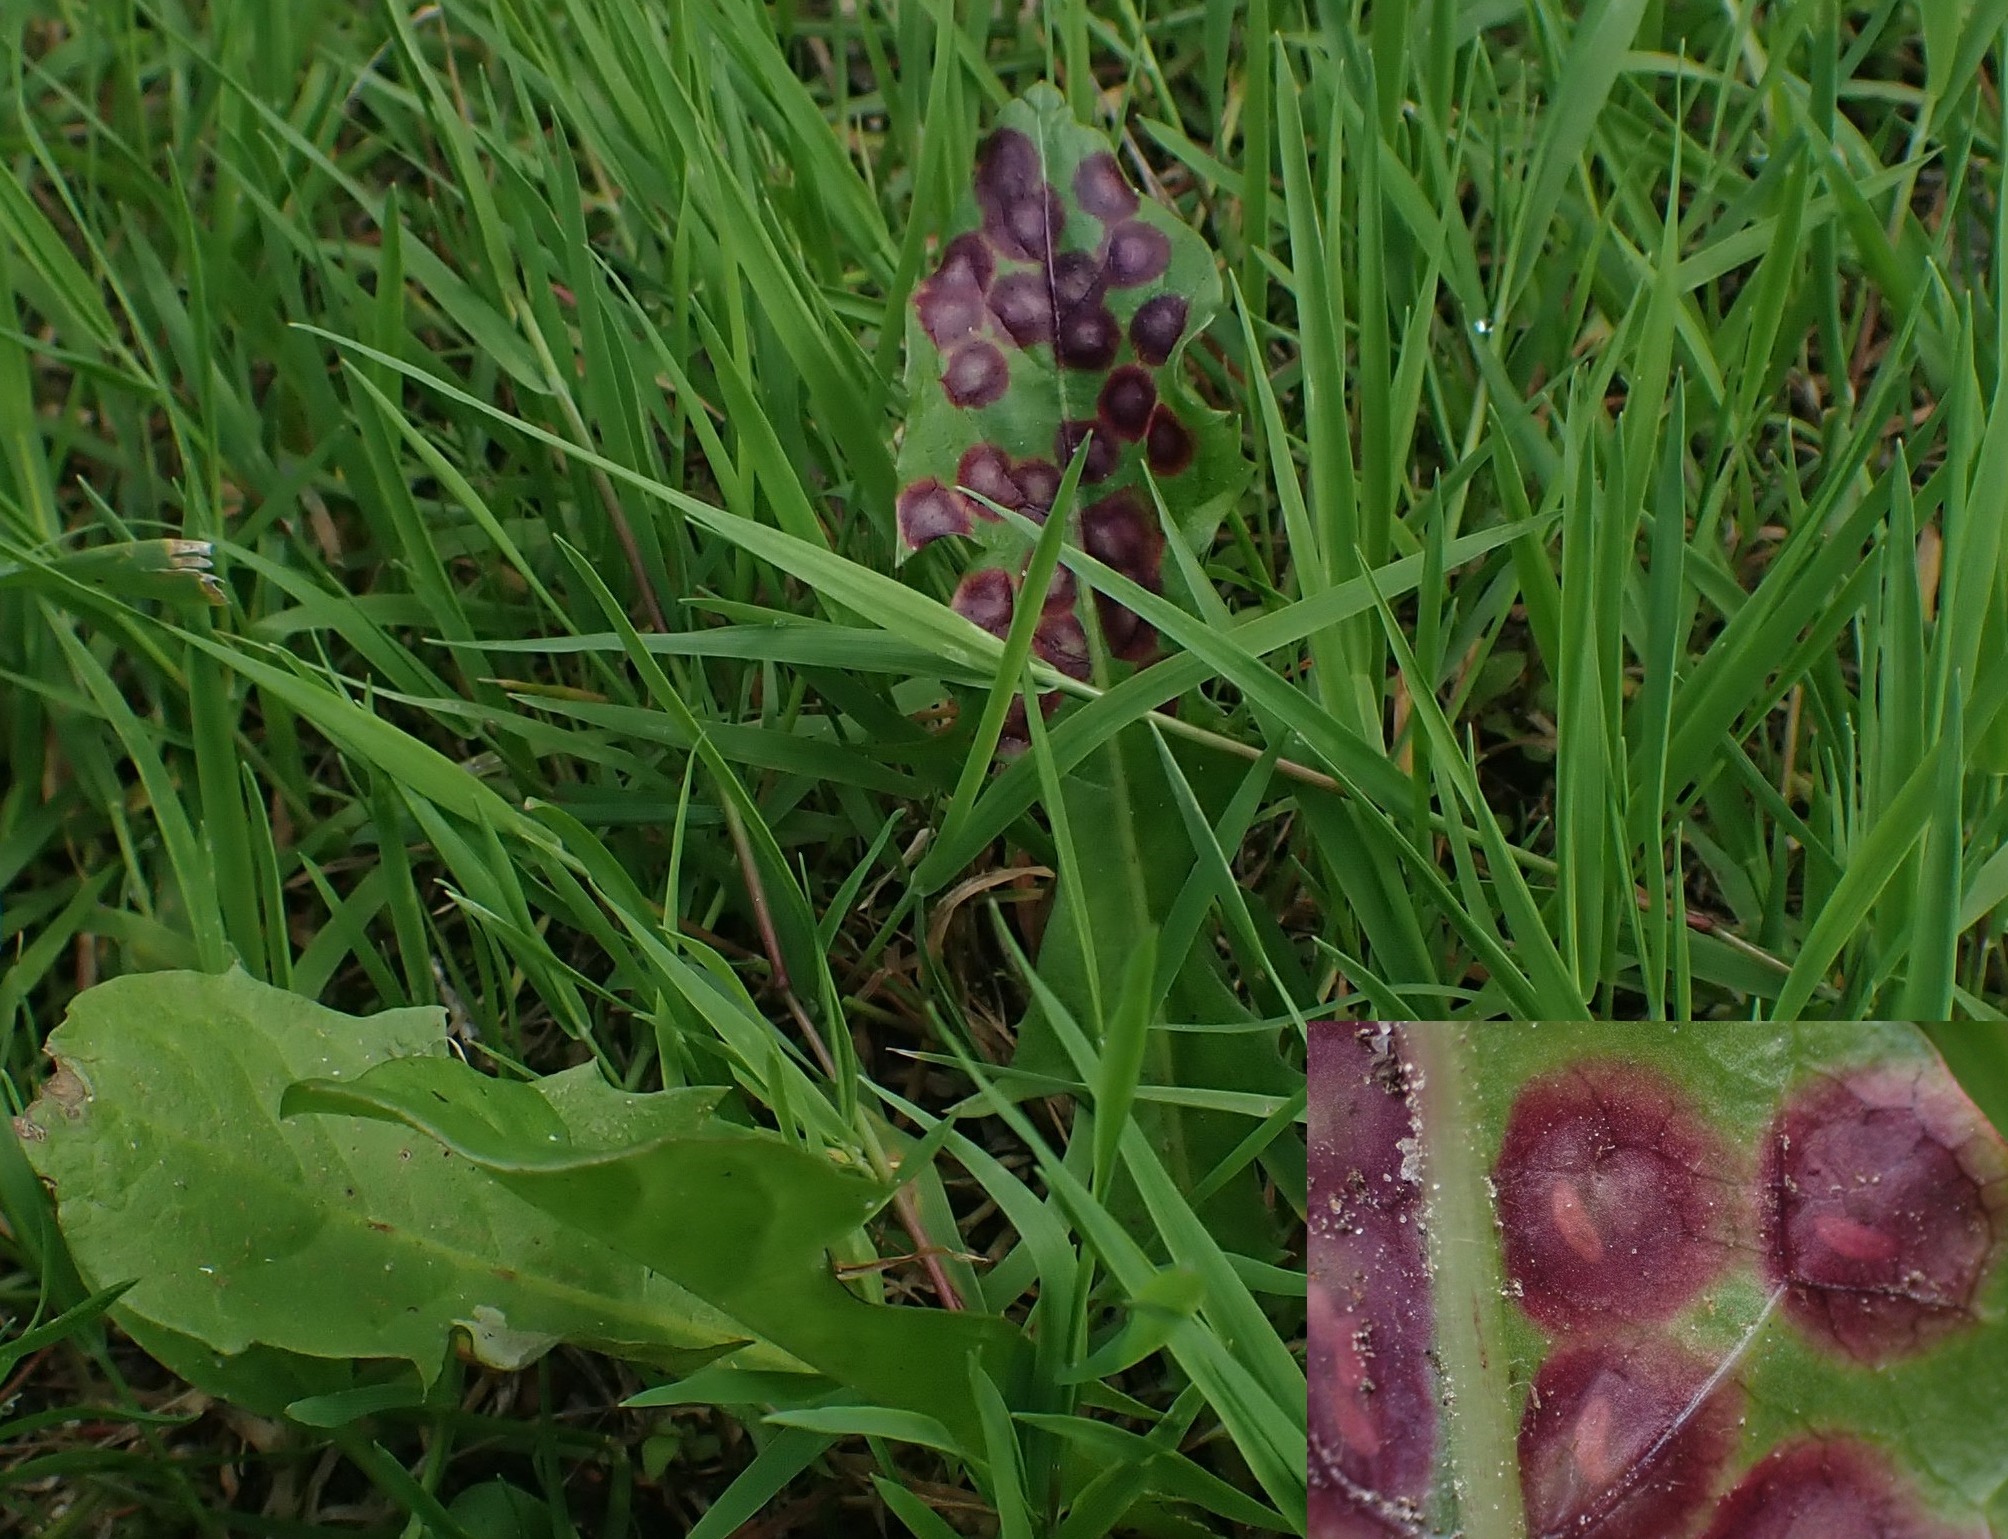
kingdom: Animalia
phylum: Arthropoda
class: Insecta
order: Diptera
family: Cecidomyiidae
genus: Cystiphora
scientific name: Cystiphora taraxaci
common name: Mælkebøttegalmyg
